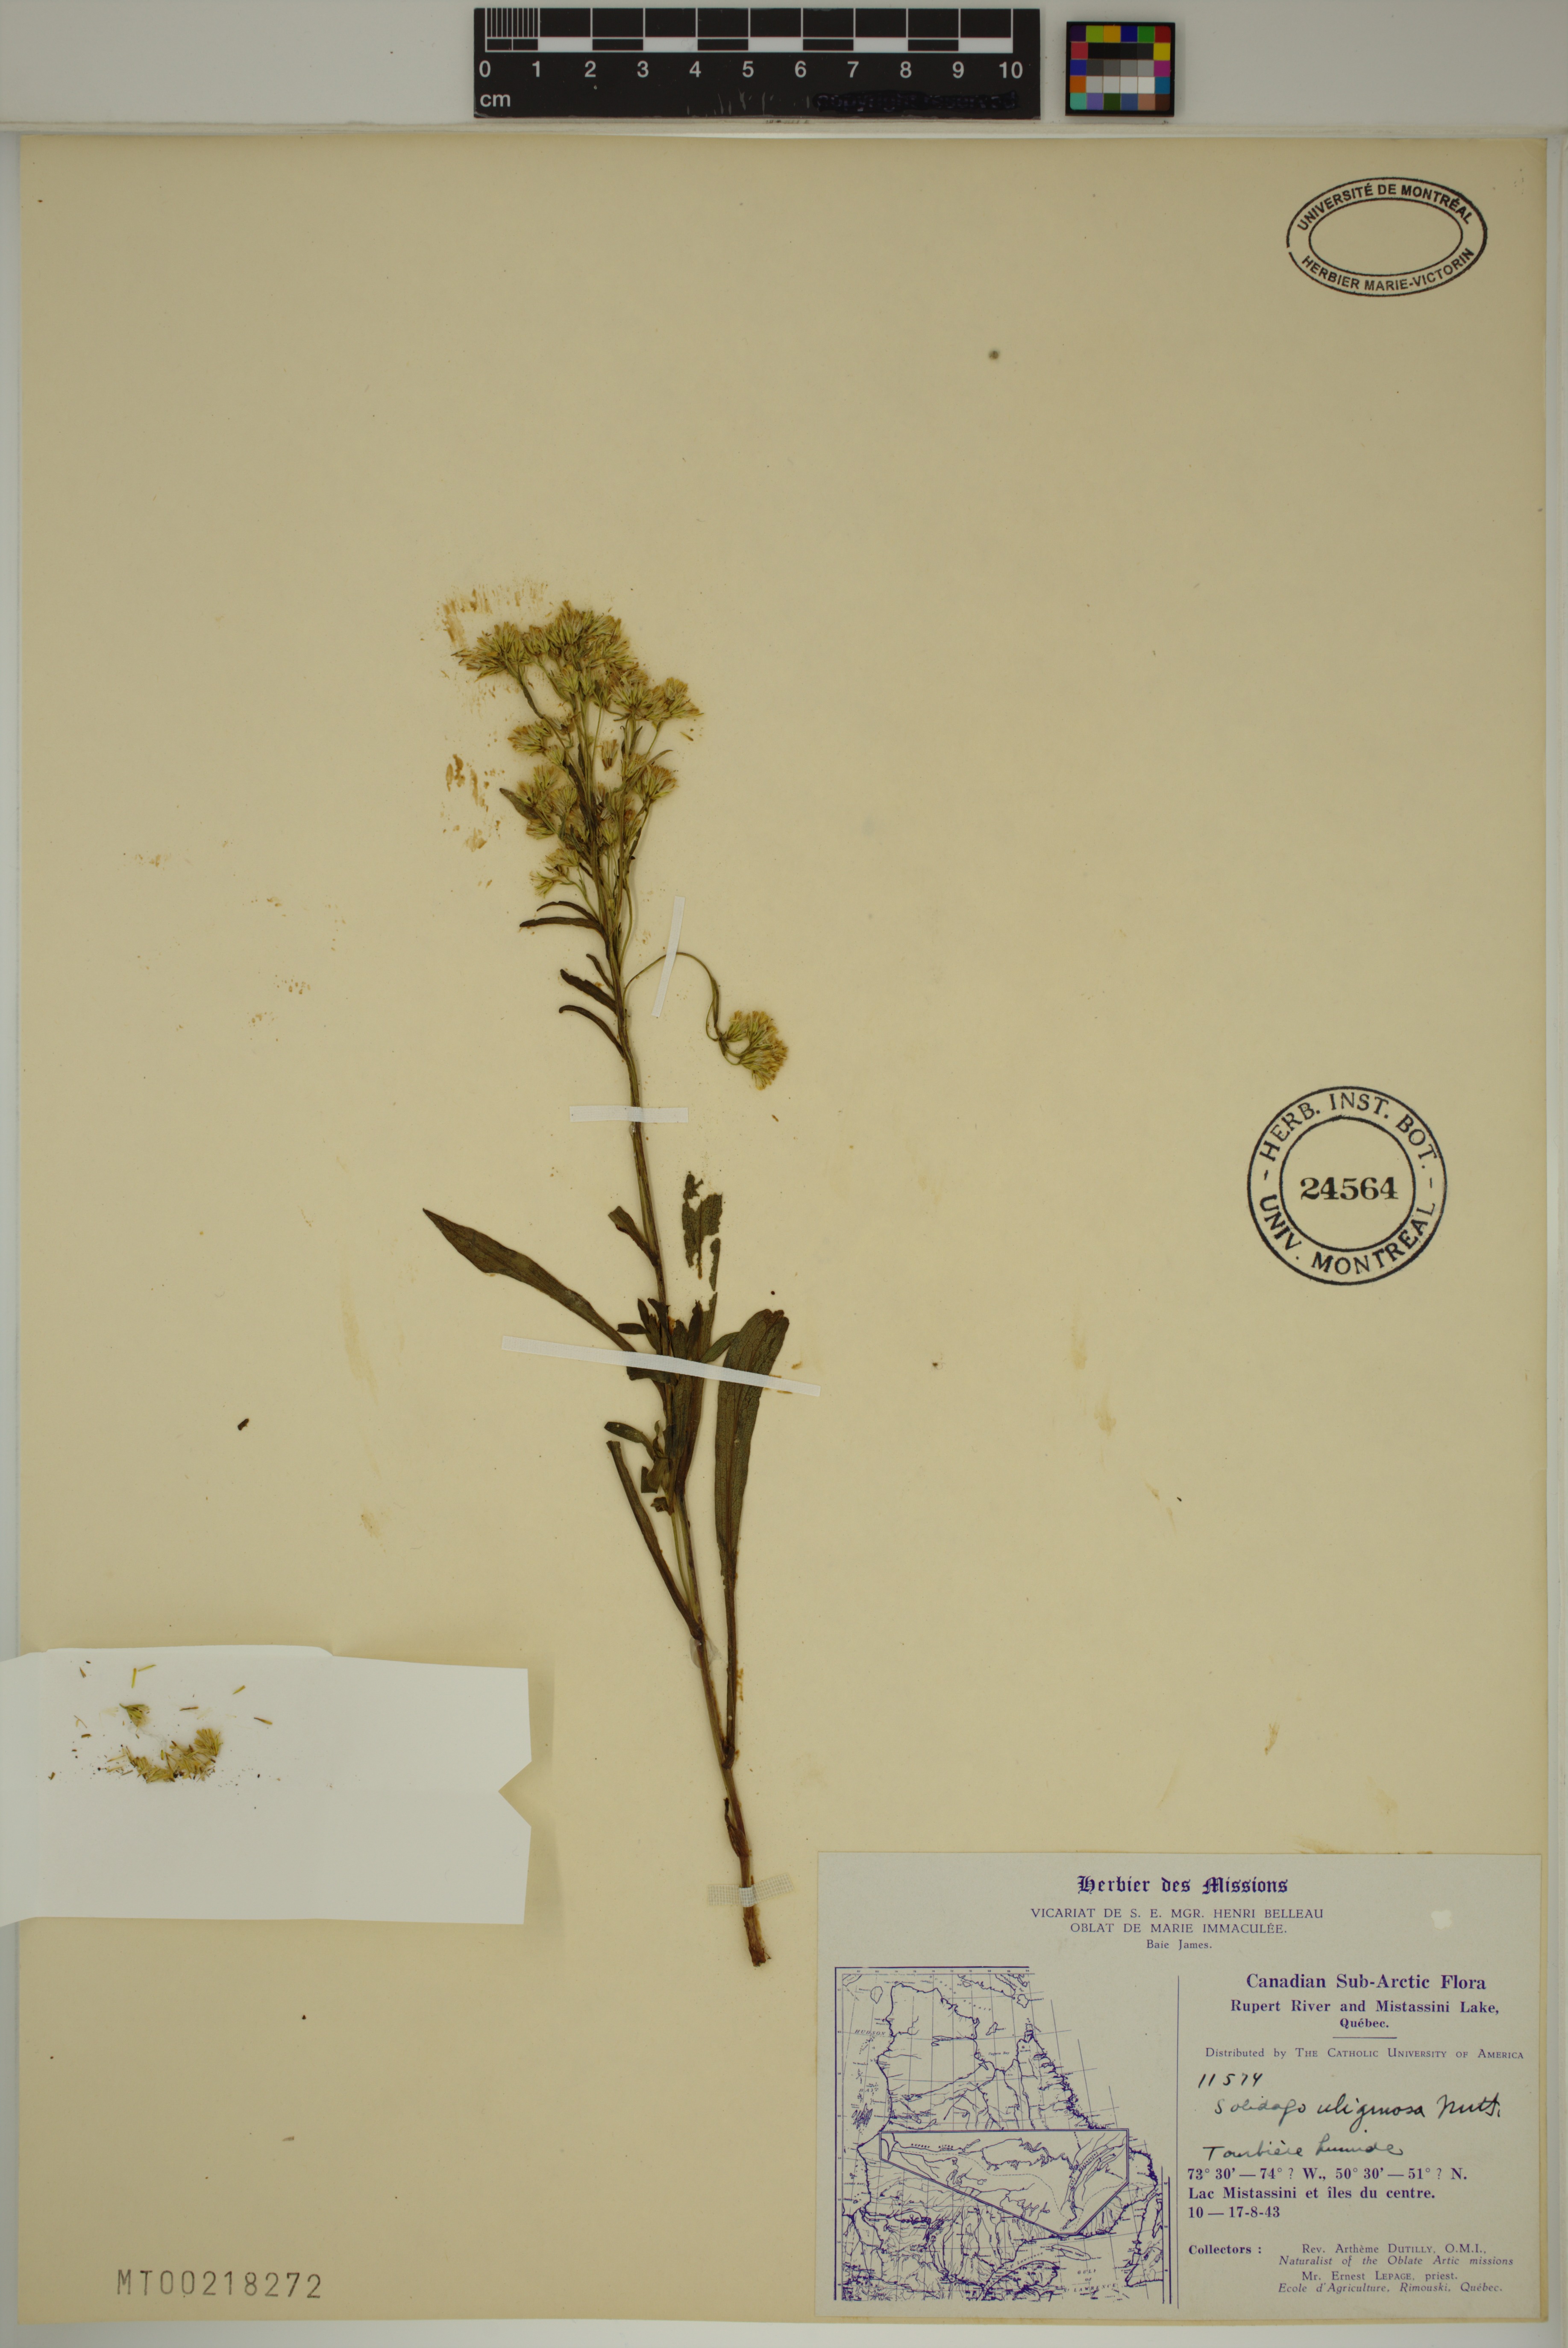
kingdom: Plantae
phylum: Tracheophyta
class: Magnoliopsida
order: Asterales
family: Asteraceae
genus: Solidago
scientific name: Solidago uliginosa
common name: Bog goldenrod
